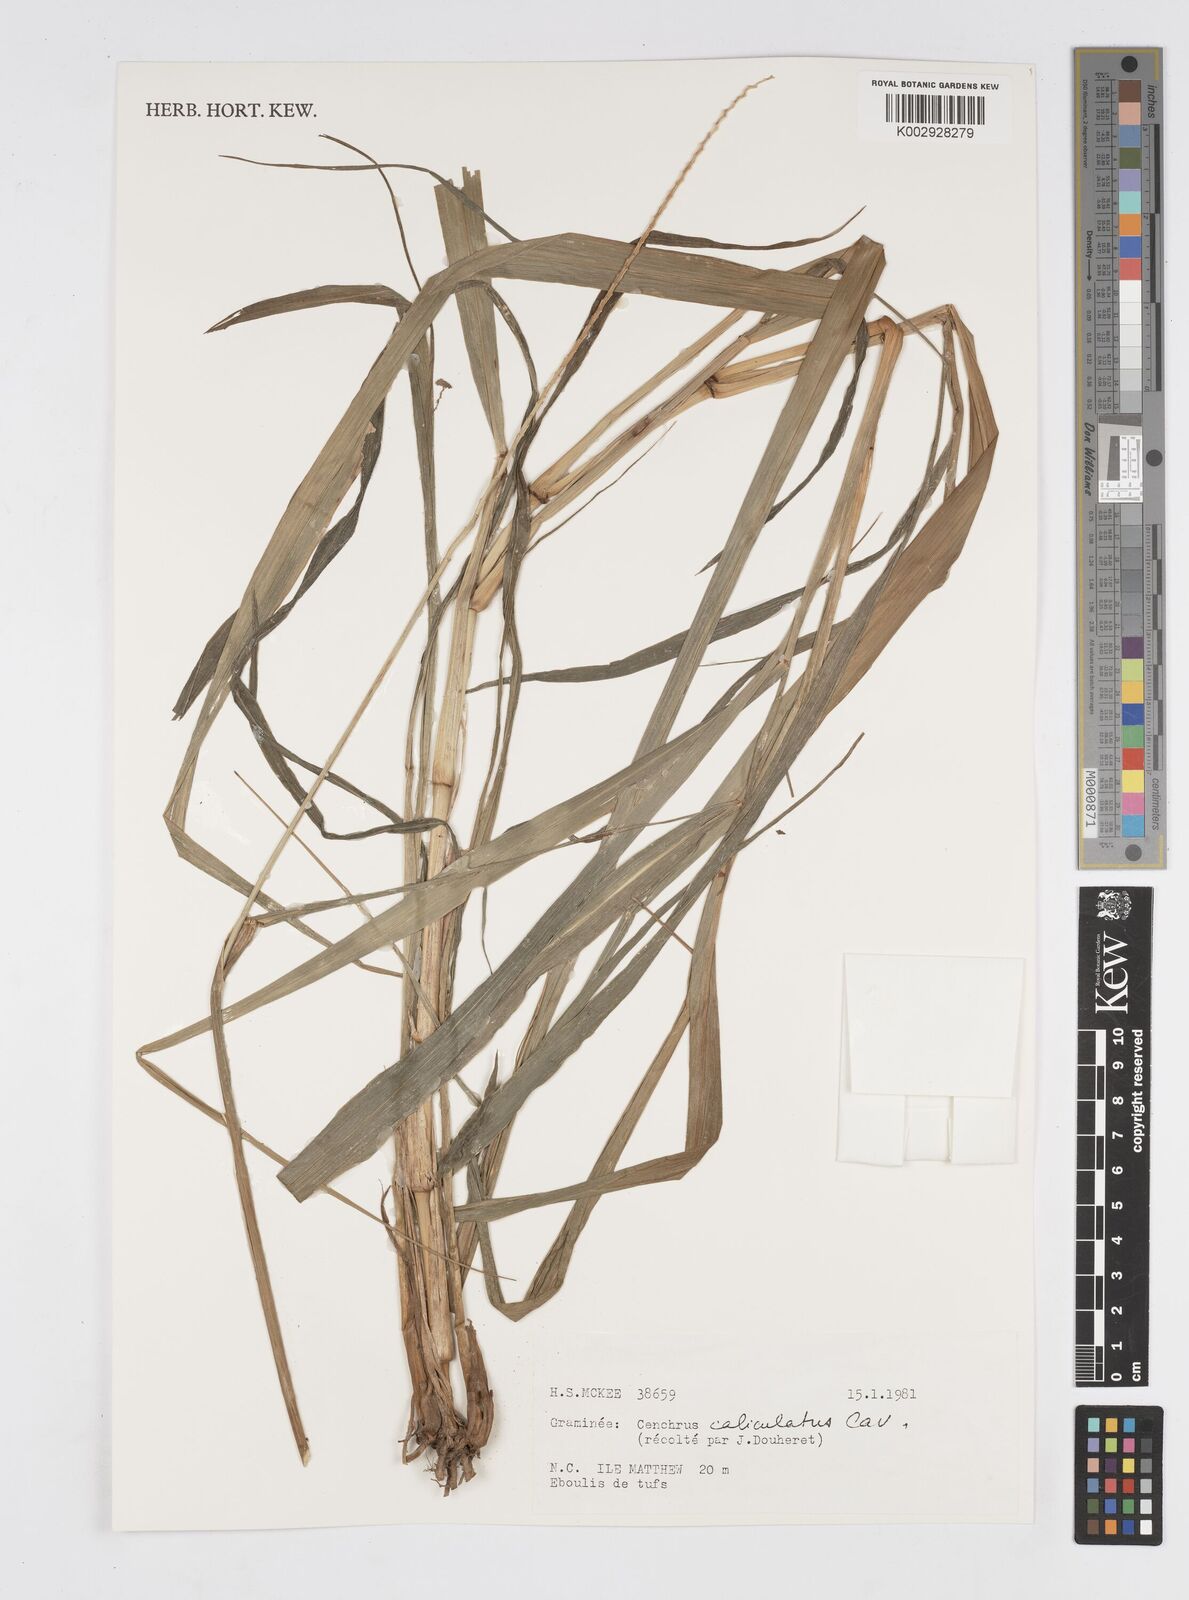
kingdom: Plantae
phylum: Tracheophyta
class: Liliopsida
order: Poales
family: Poaceae
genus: Cenchrus
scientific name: Cenchrus caliculatus
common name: Large bur grass
